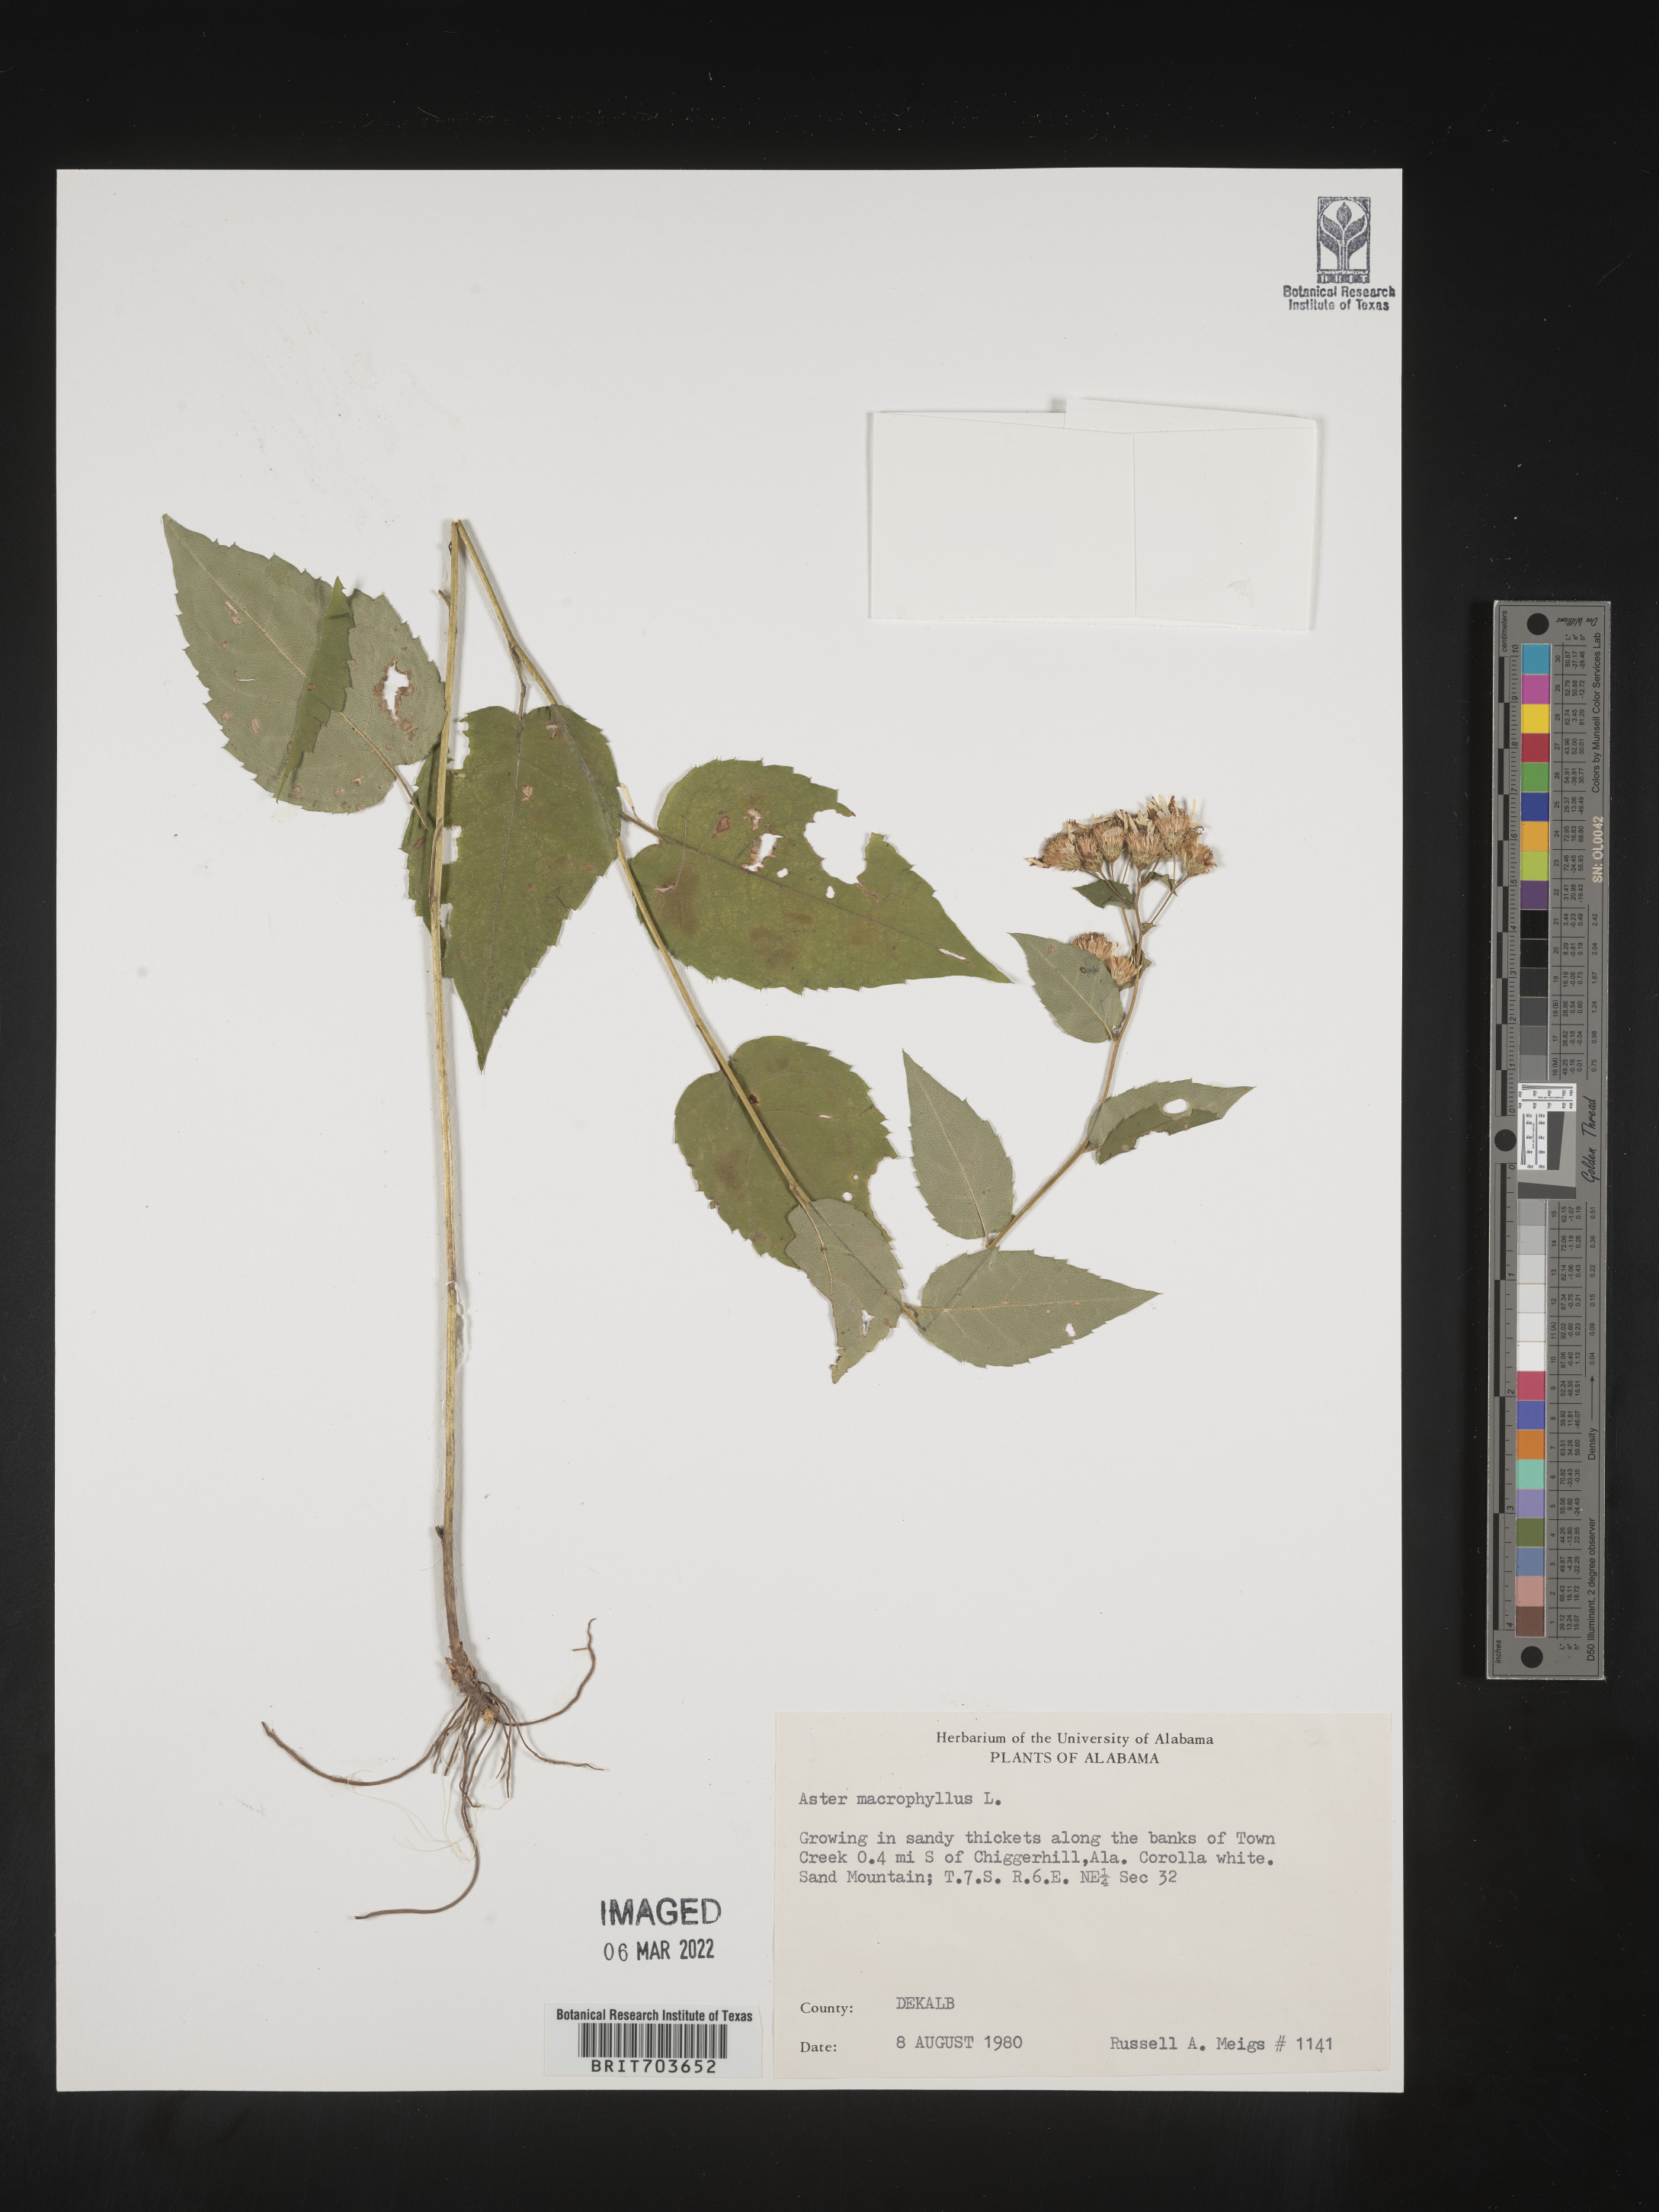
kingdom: Plantae
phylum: Tracheophyta
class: Magnoliopsida
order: Asterales
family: Asteraceae
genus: Eurybia
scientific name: Eurybia macrophylla
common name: Big-leaved aster
